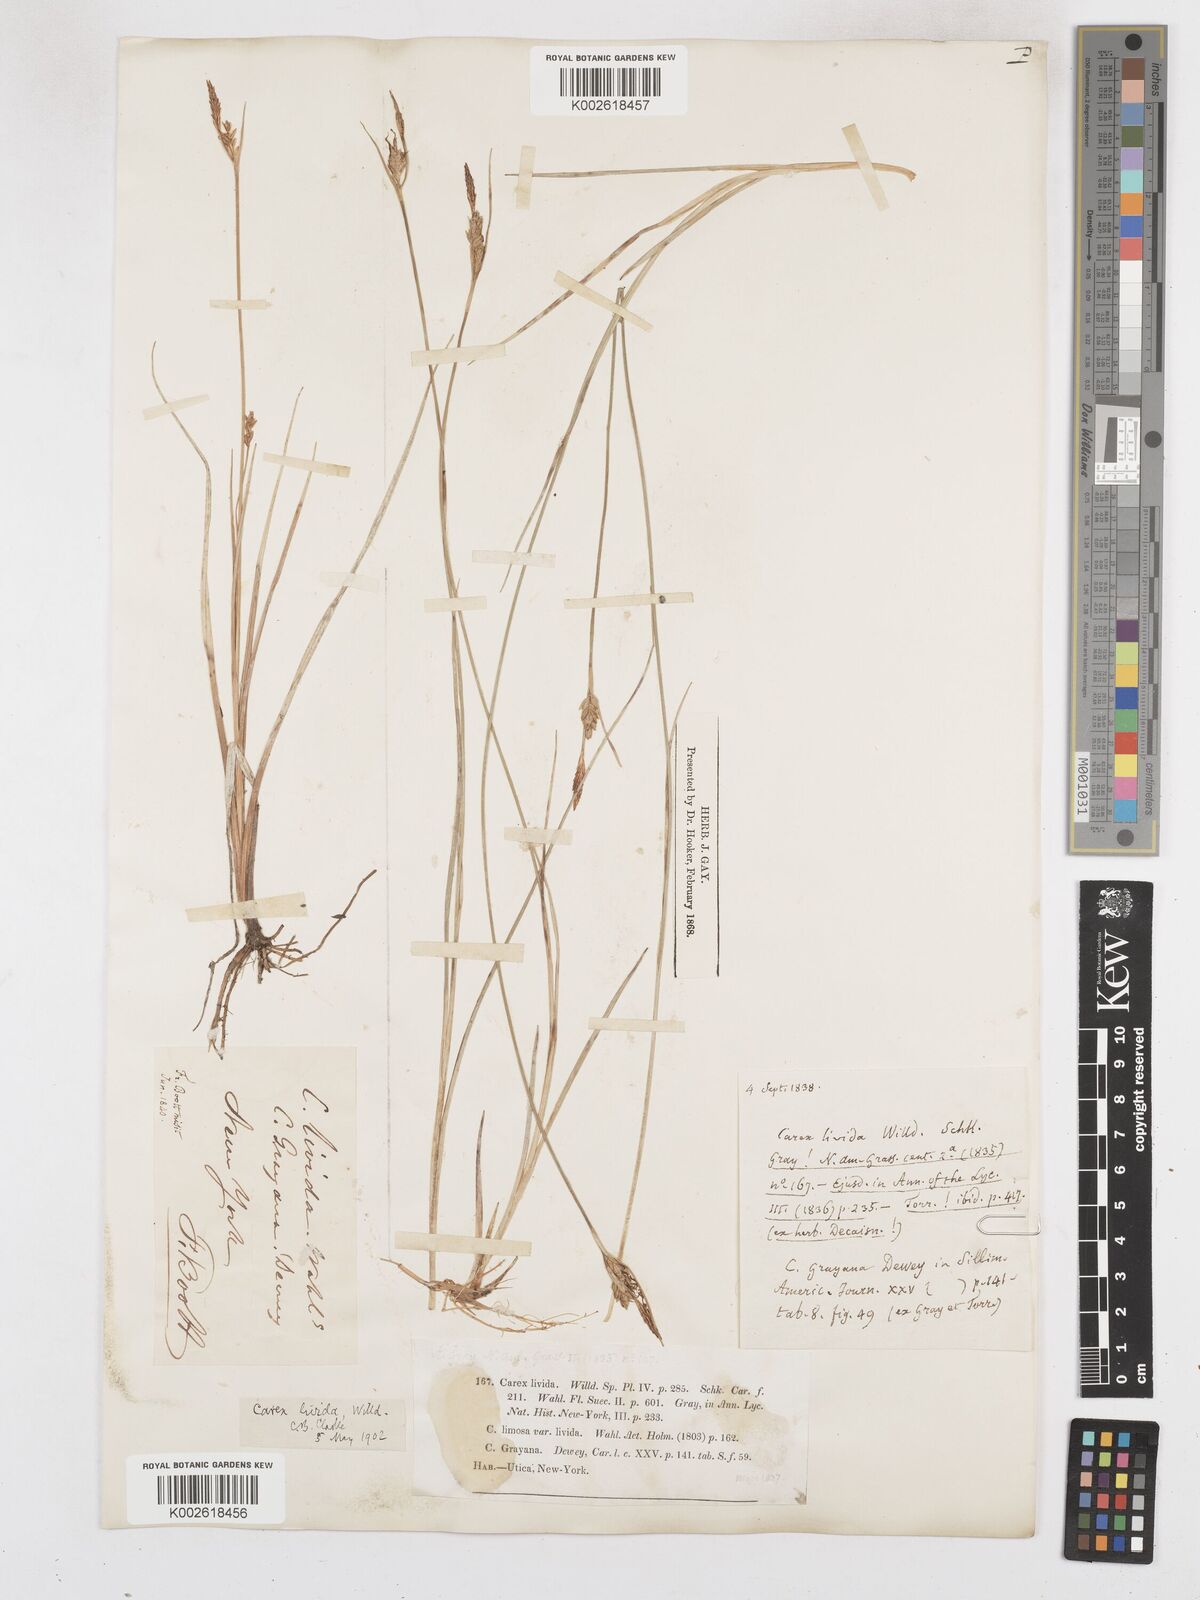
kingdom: Plantae
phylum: Tracheophyta
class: Liliopsida
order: Poales
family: Cyperaceae
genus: Carex
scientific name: Carex livida
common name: Livid sedge
